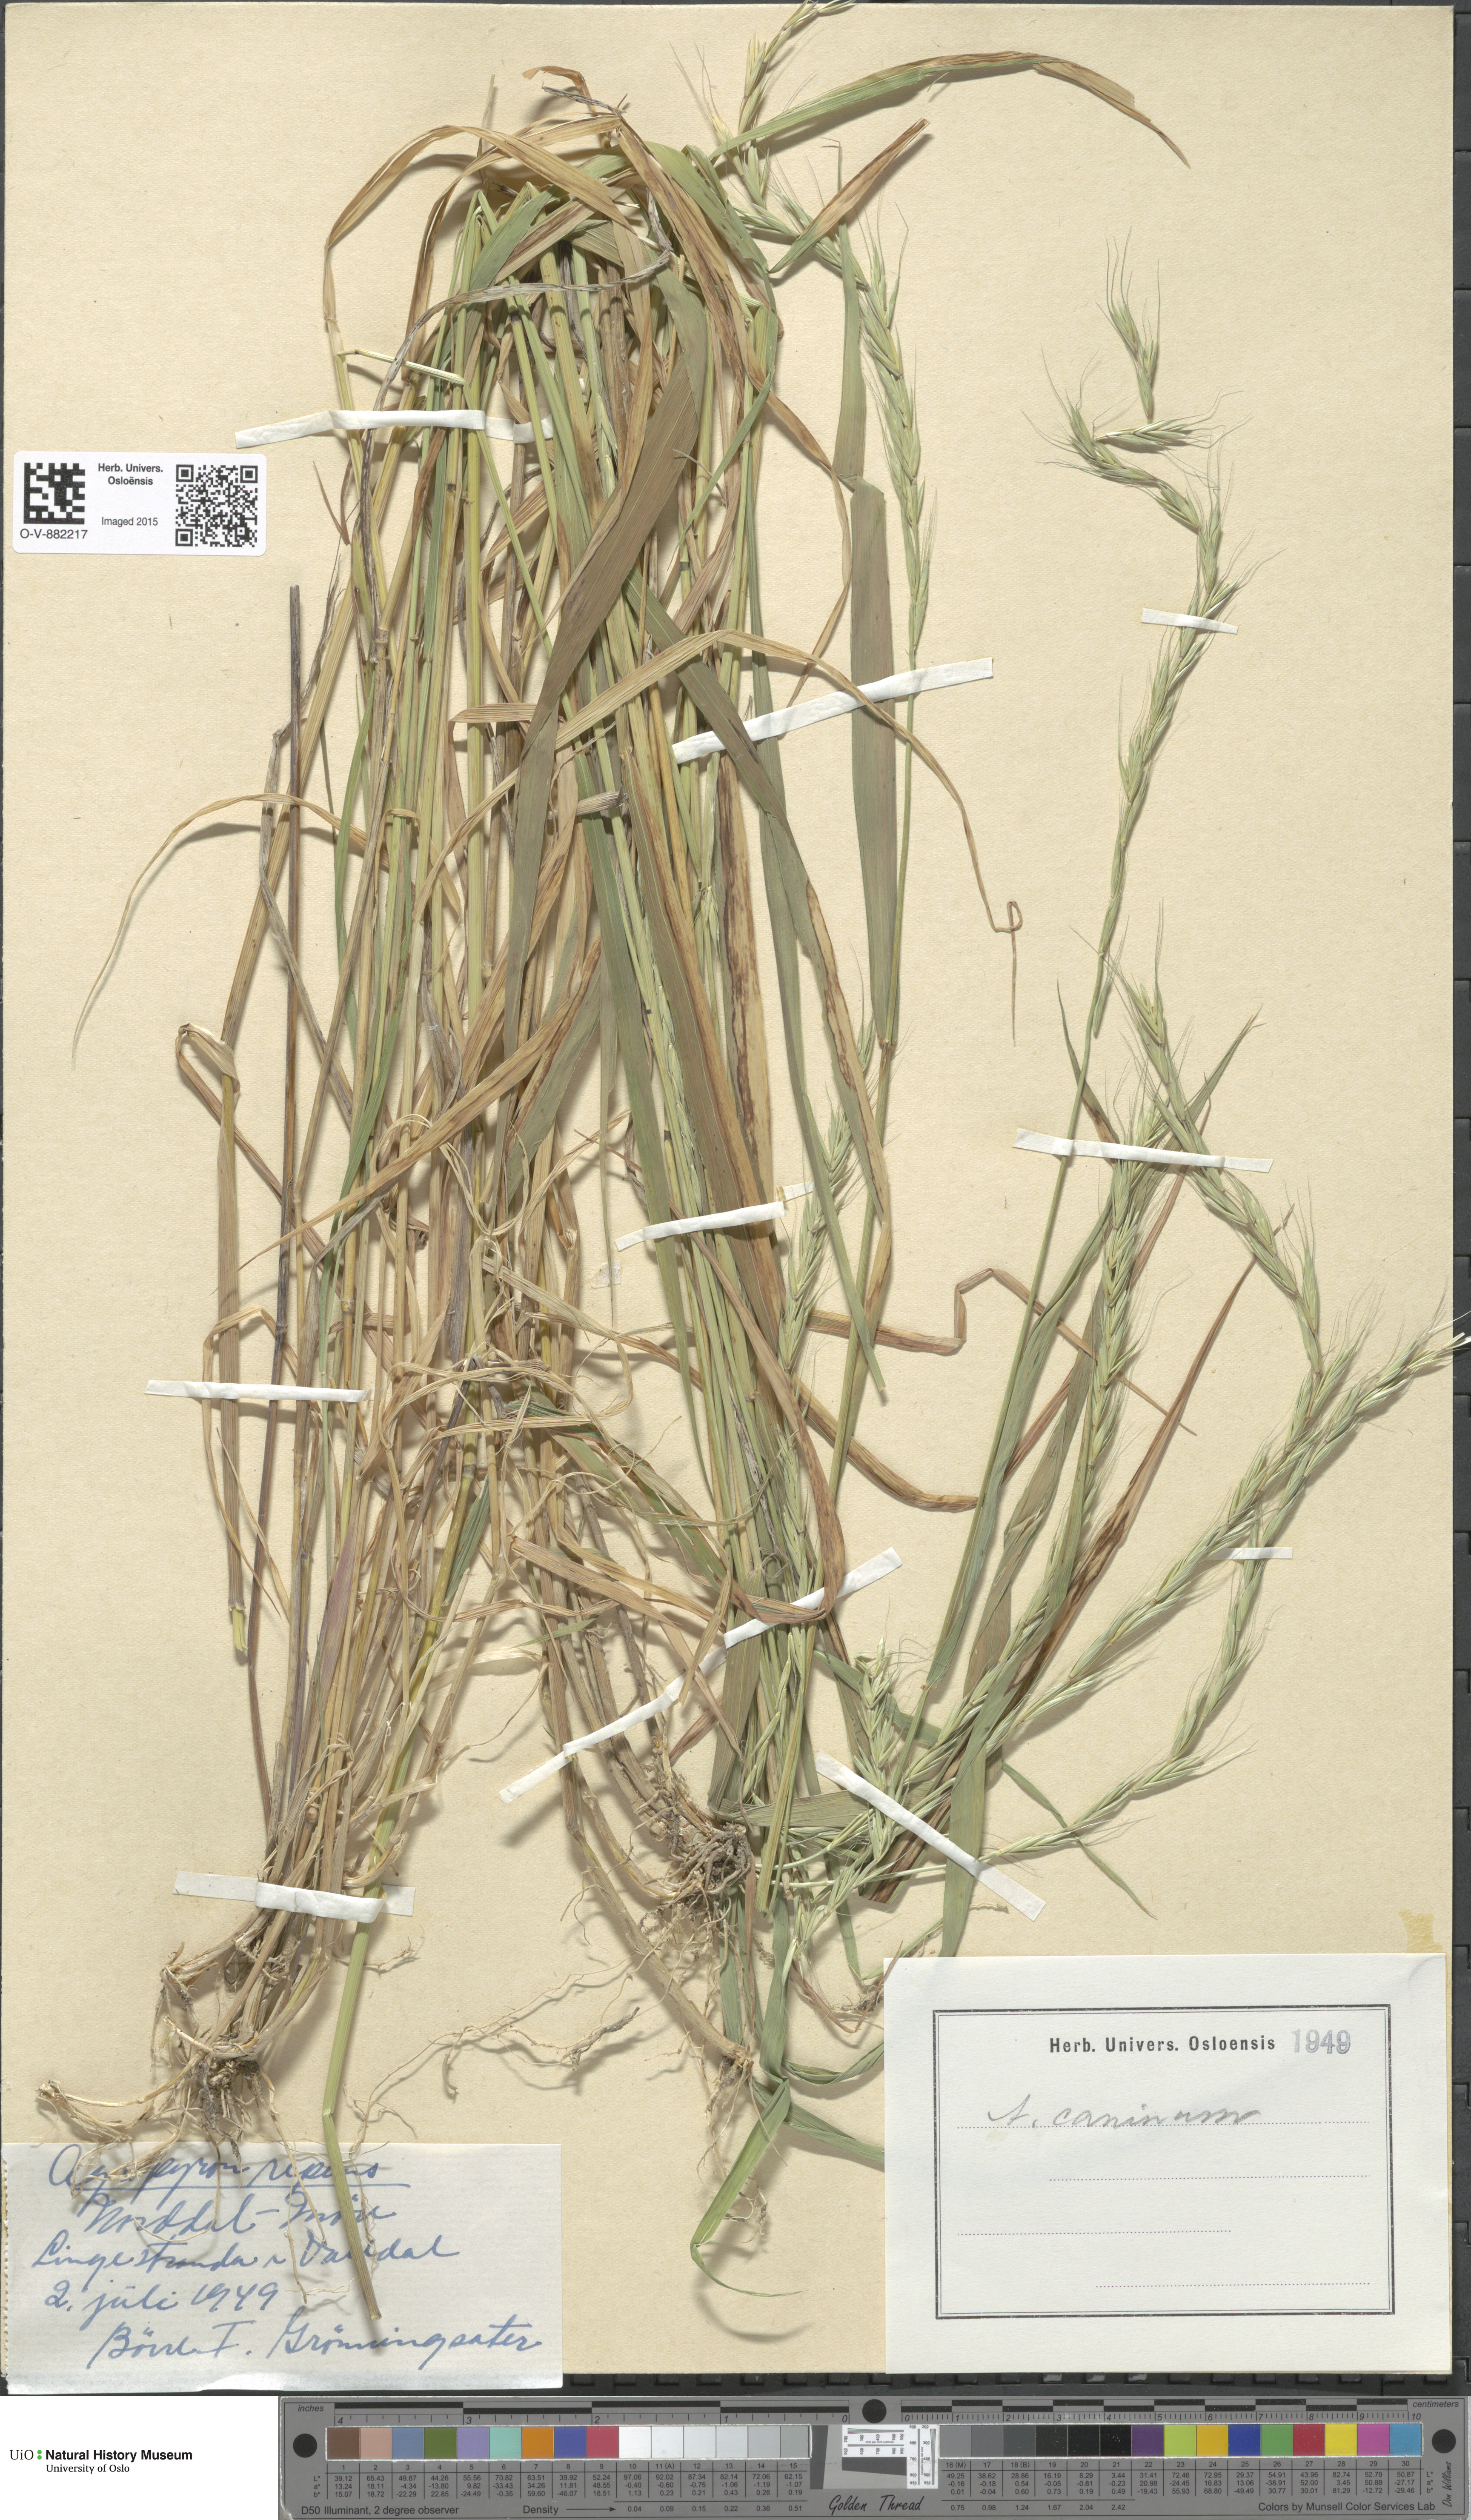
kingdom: Plantae
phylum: Tracheophyta
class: Liliopsida
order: Poales
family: Poaceae
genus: Elymus
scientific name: Elymus caninus
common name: Bearded couch
